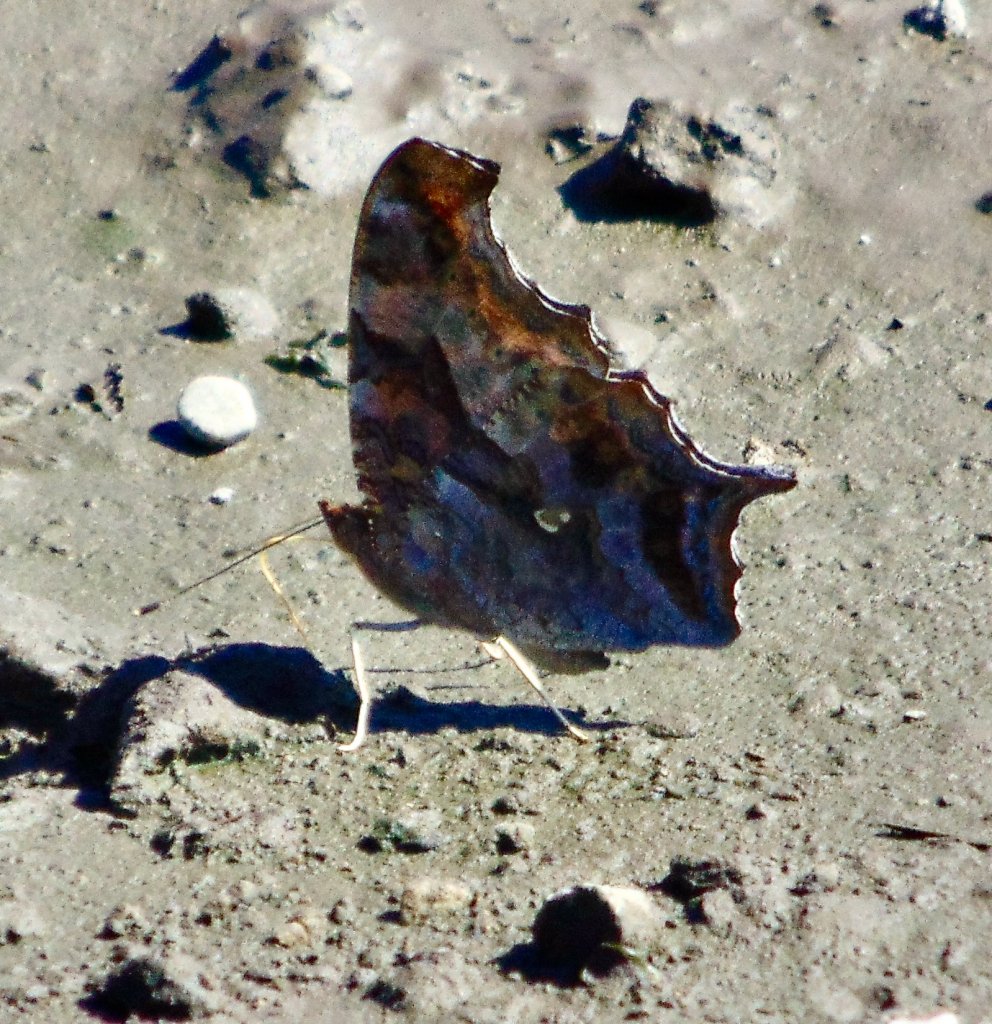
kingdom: Animalia
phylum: Arthropoda
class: Insecta
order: Lepidoptera
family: Nymphalidae
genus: Polygonia
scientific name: Polygonia interrogationis
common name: Question Mark
